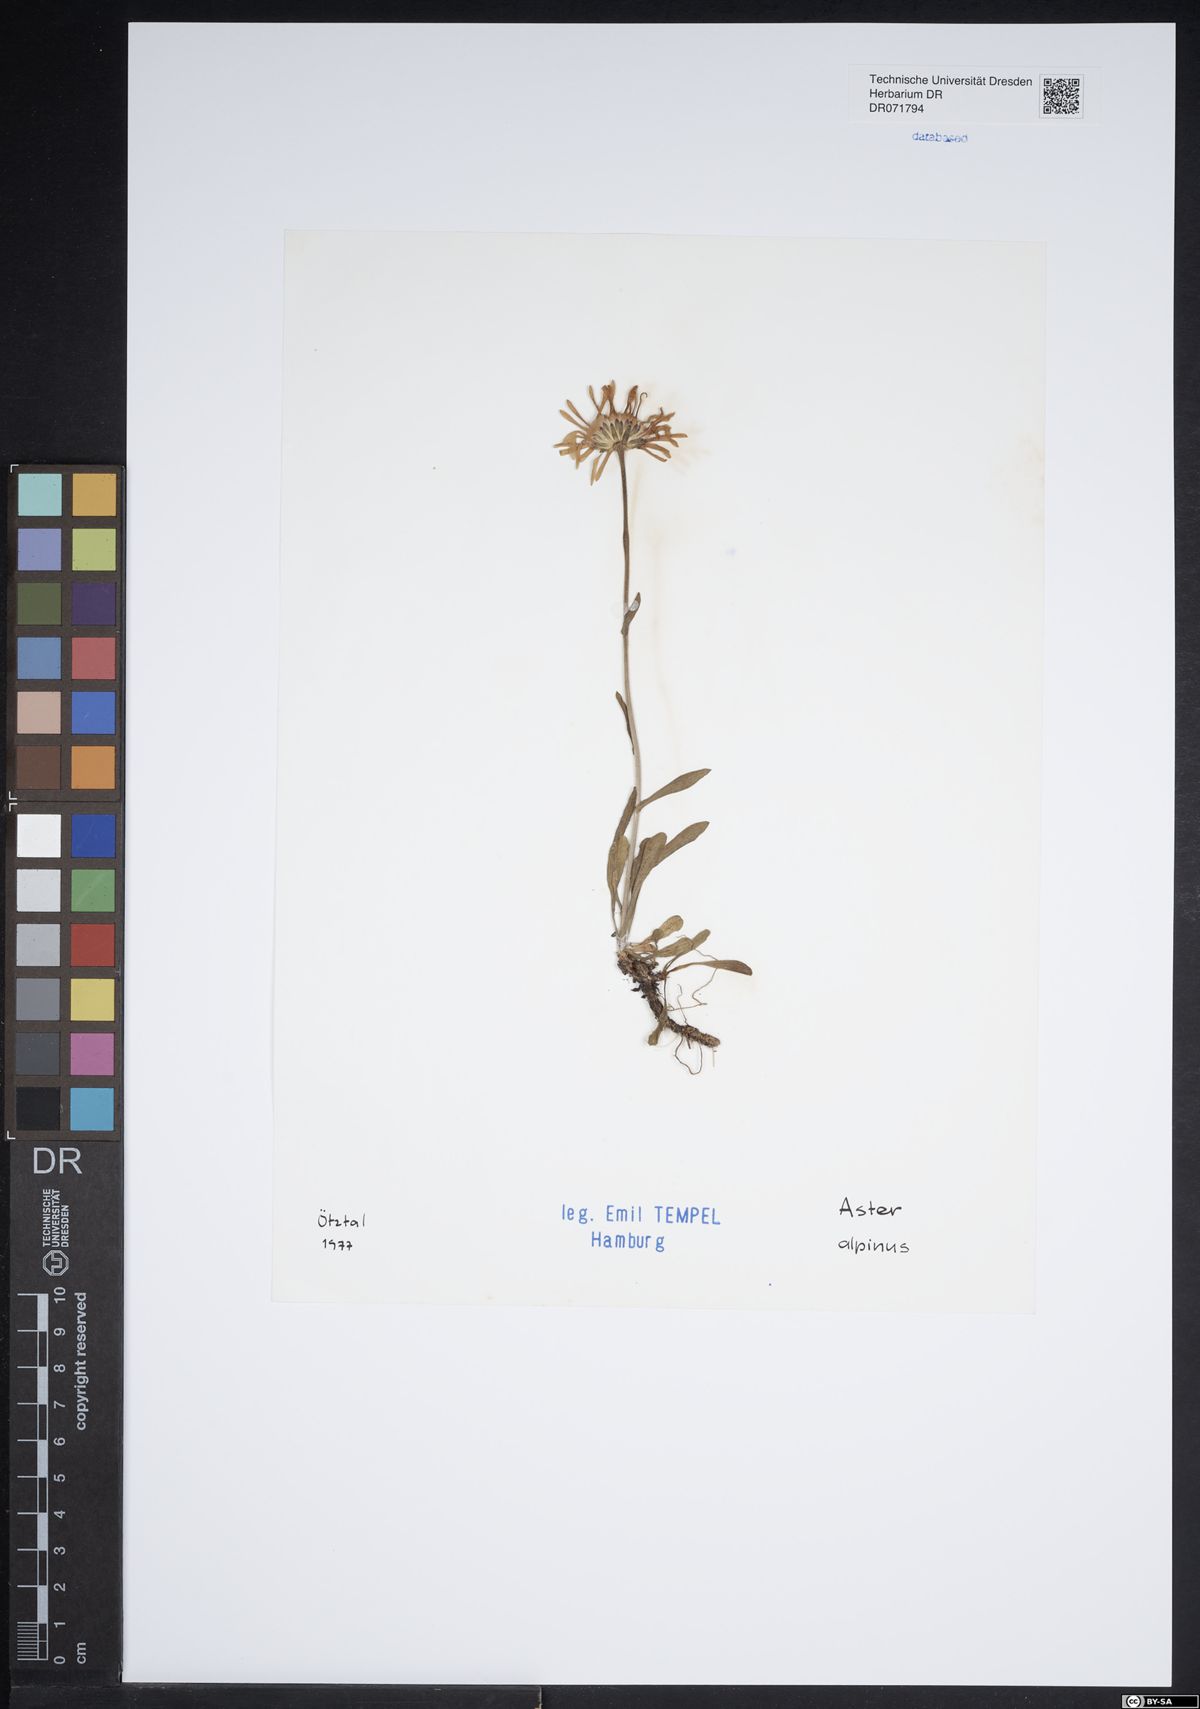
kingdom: Plantae
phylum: Tracheophyta
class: Magnoliopsida
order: Asterales
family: Asteraceae
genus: Aster
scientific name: Aster alpinus
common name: Alpine aster
